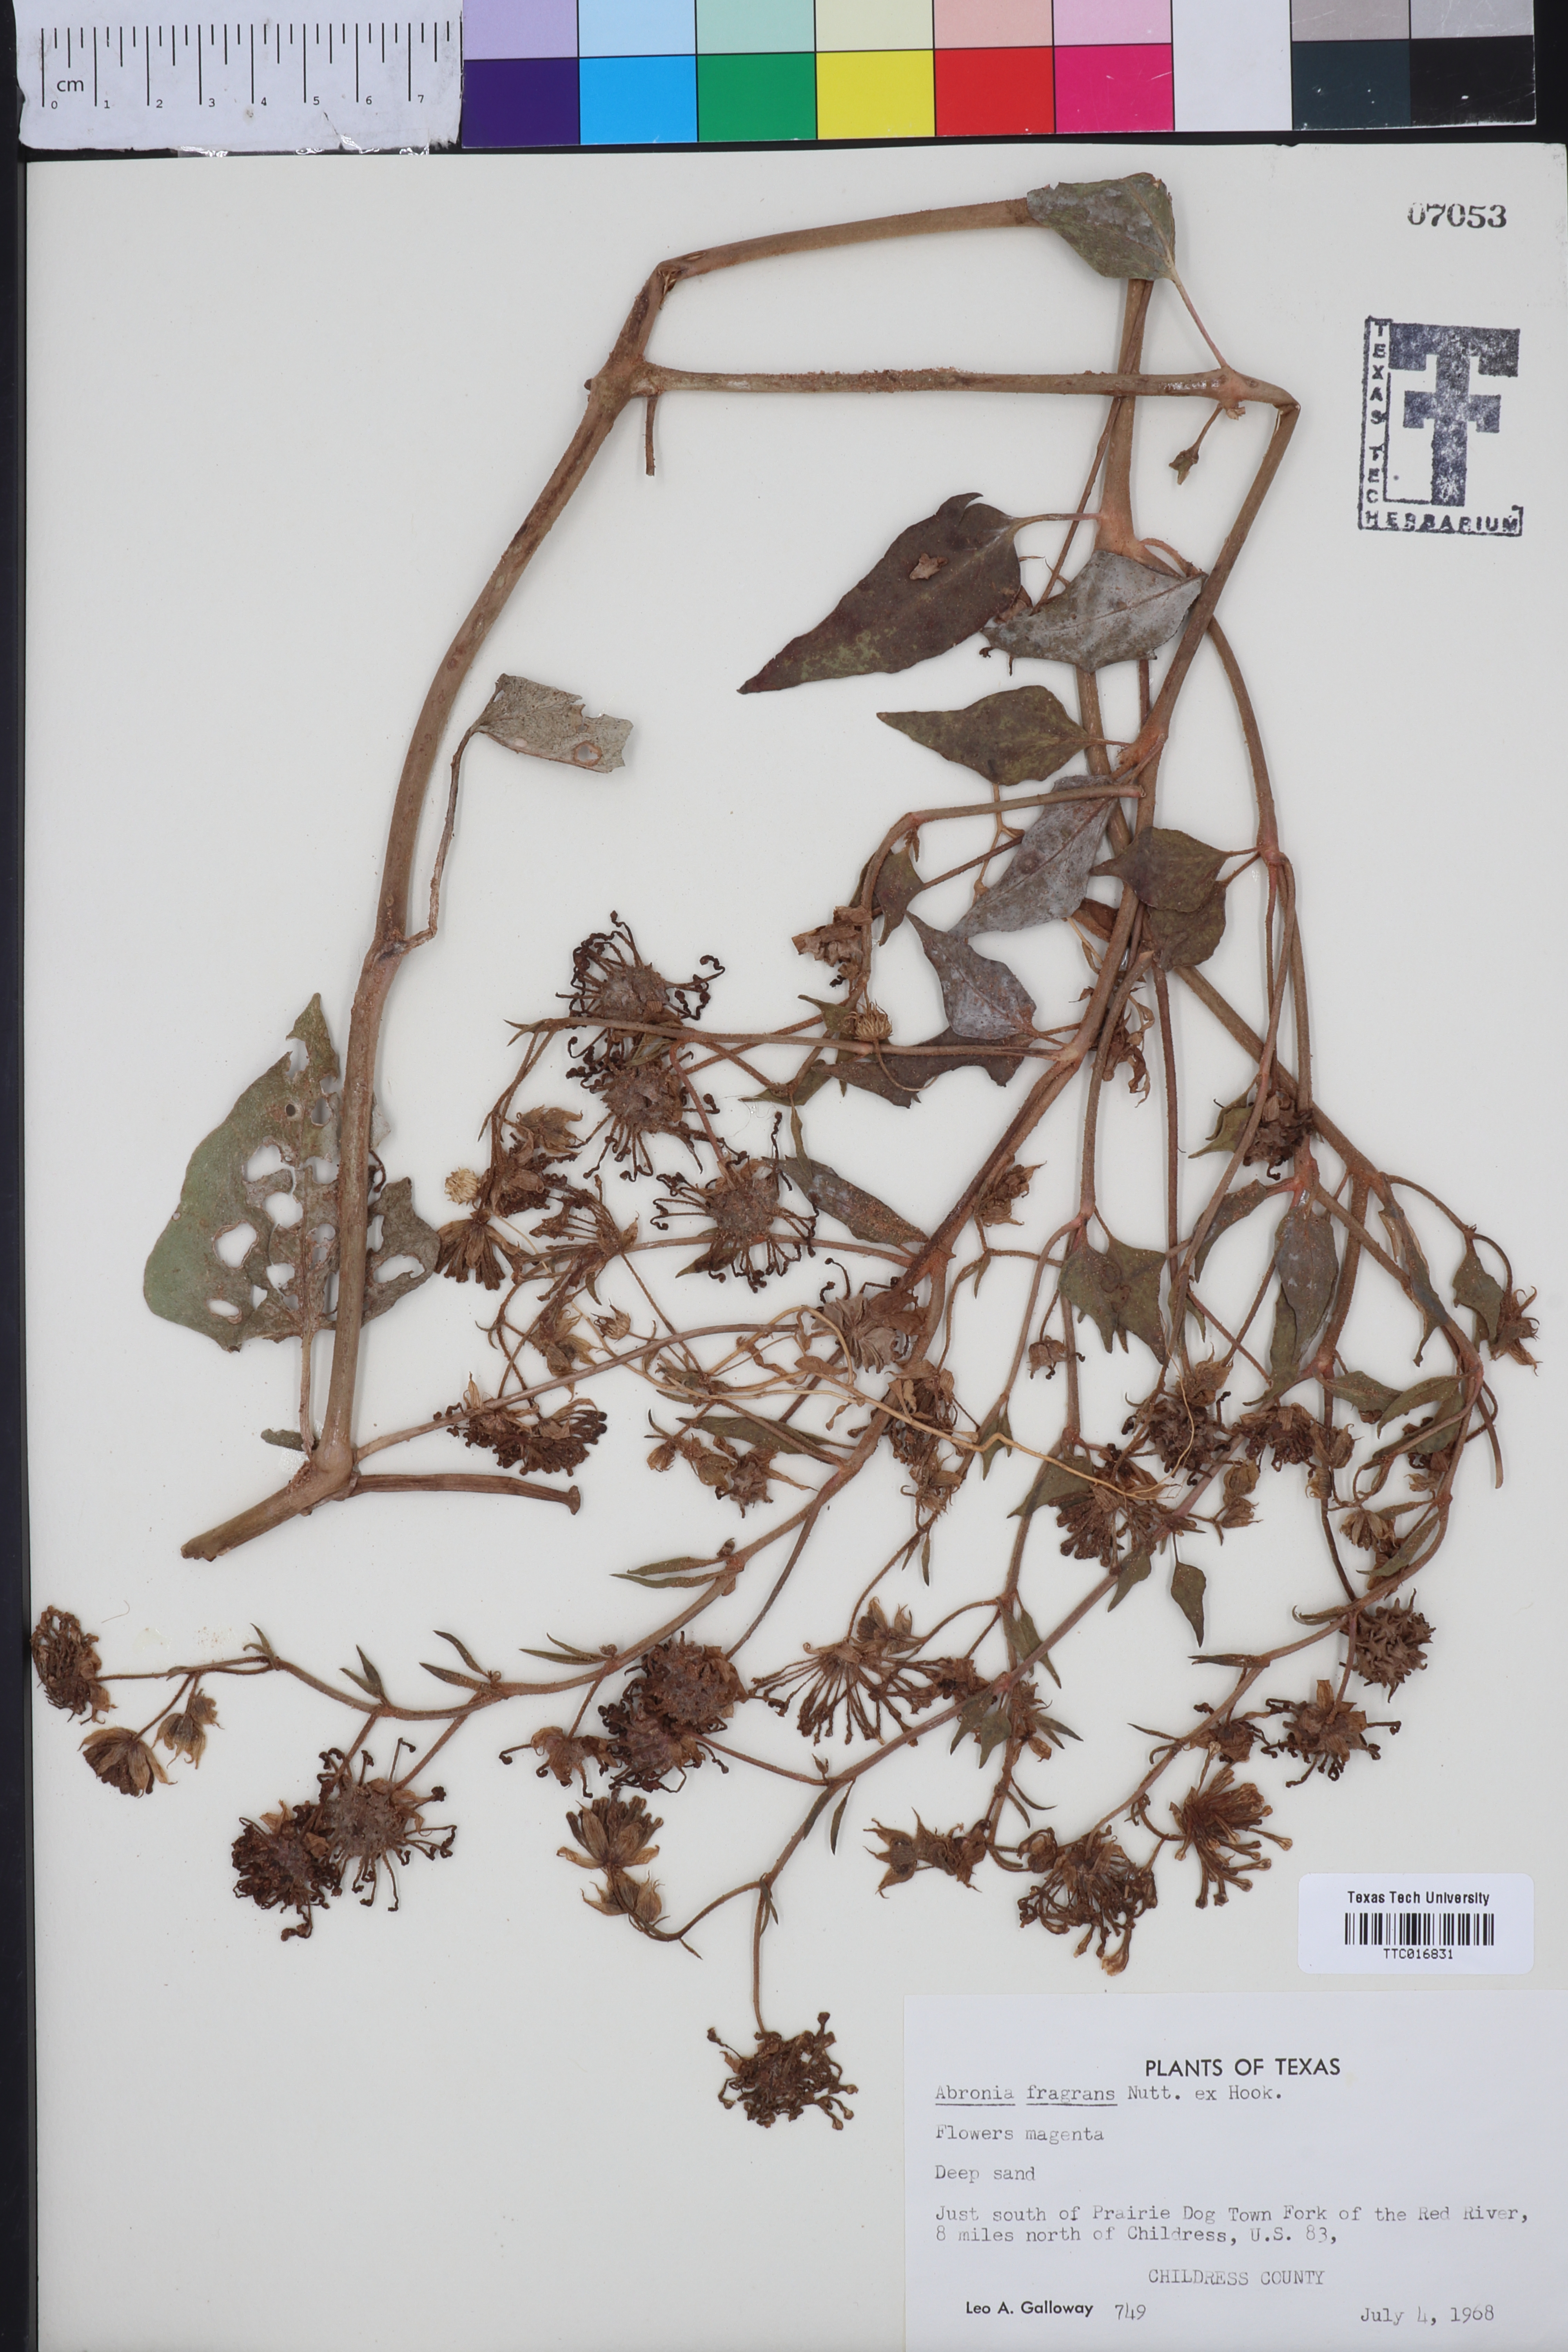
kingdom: Plantae
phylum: Tracheophyta
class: Magnoliopsida
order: Caryophyllales
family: Nyctaginaceae
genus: Abronia
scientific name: Abronia fragrans
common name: Fragrant sand-verbena
